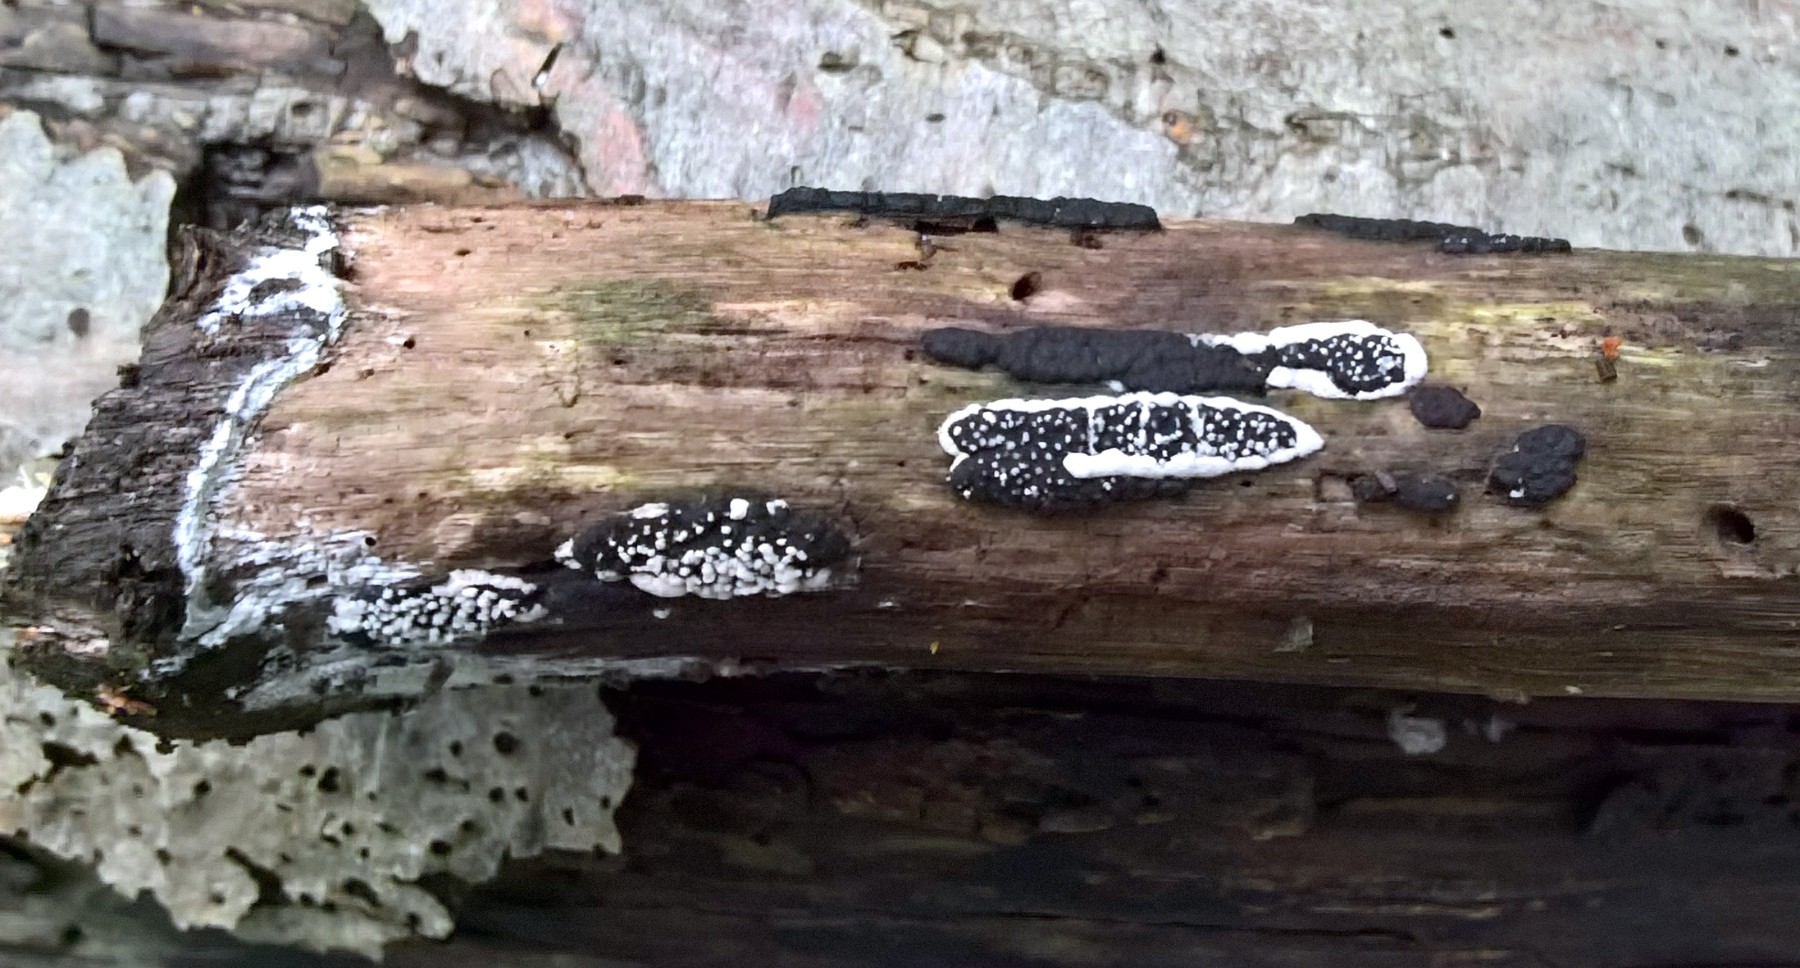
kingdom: Fungi
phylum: Ascomycota
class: Sordariomycetes
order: Xylariales
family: Xylariaceae
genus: Nemania
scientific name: Nemania
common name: kuldyne
